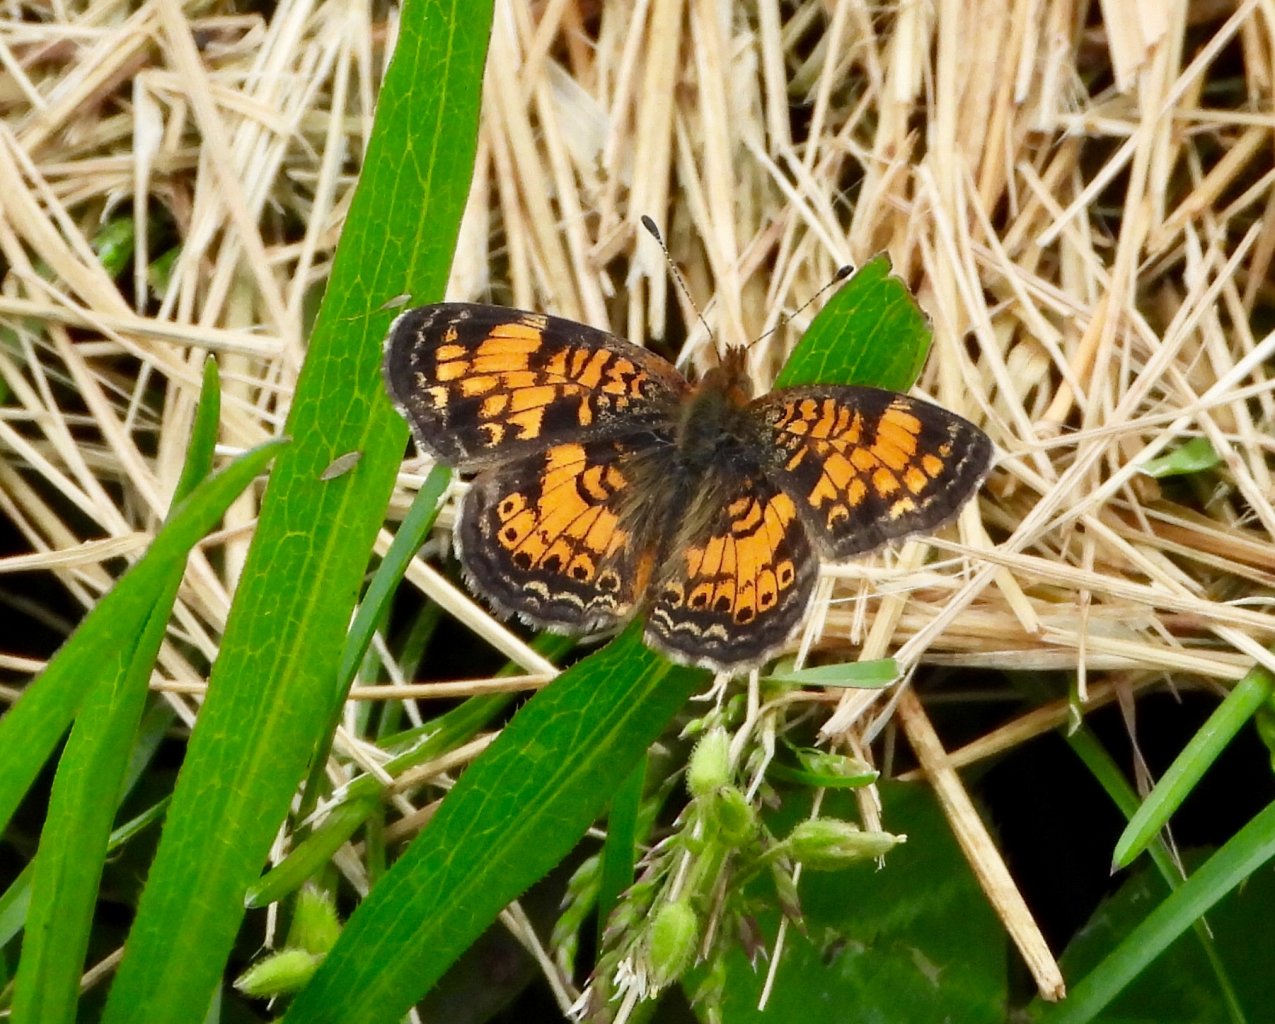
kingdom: Animalia
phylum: Arthropoda
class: Insecta
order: Lepidoptera
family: Nymphalidae
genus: Phyciodes
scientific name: Phyciodes tharos
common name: Pearl Crescent
